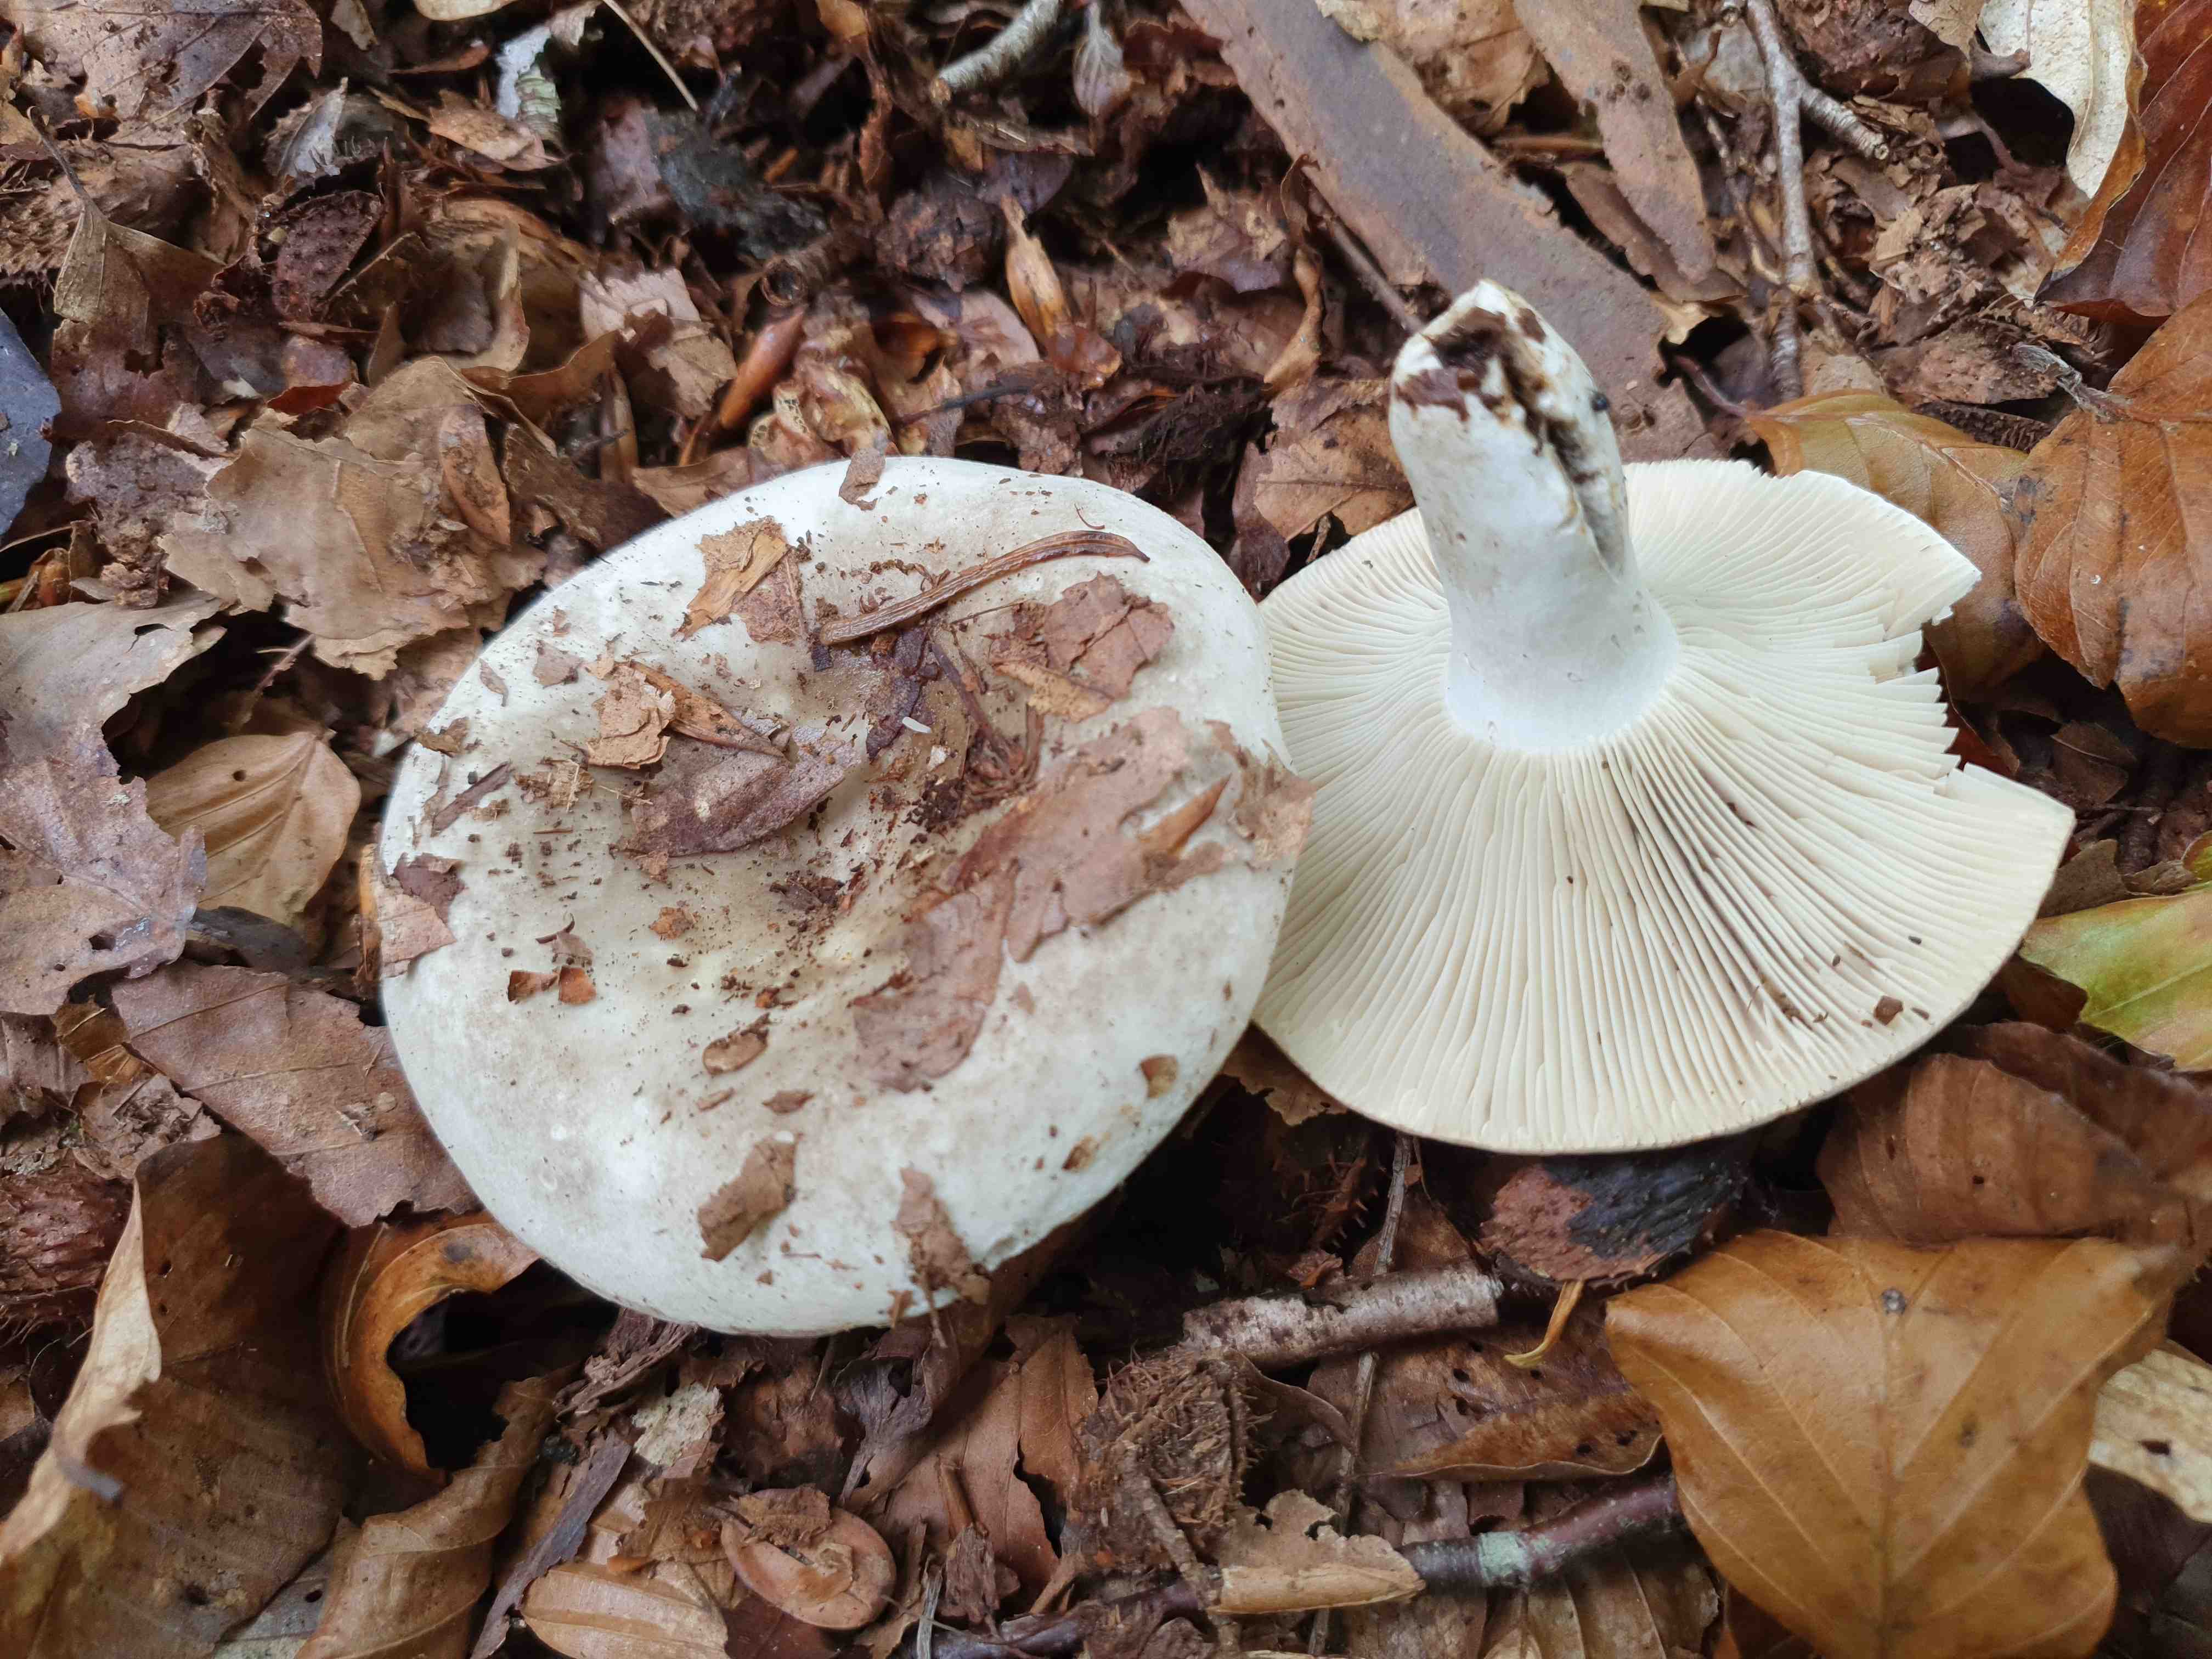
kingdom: Fungi
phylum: Basidiomycota
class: Agaricomycetes
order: Russulales
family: Russulaceae
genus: Russula
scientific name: Russula
